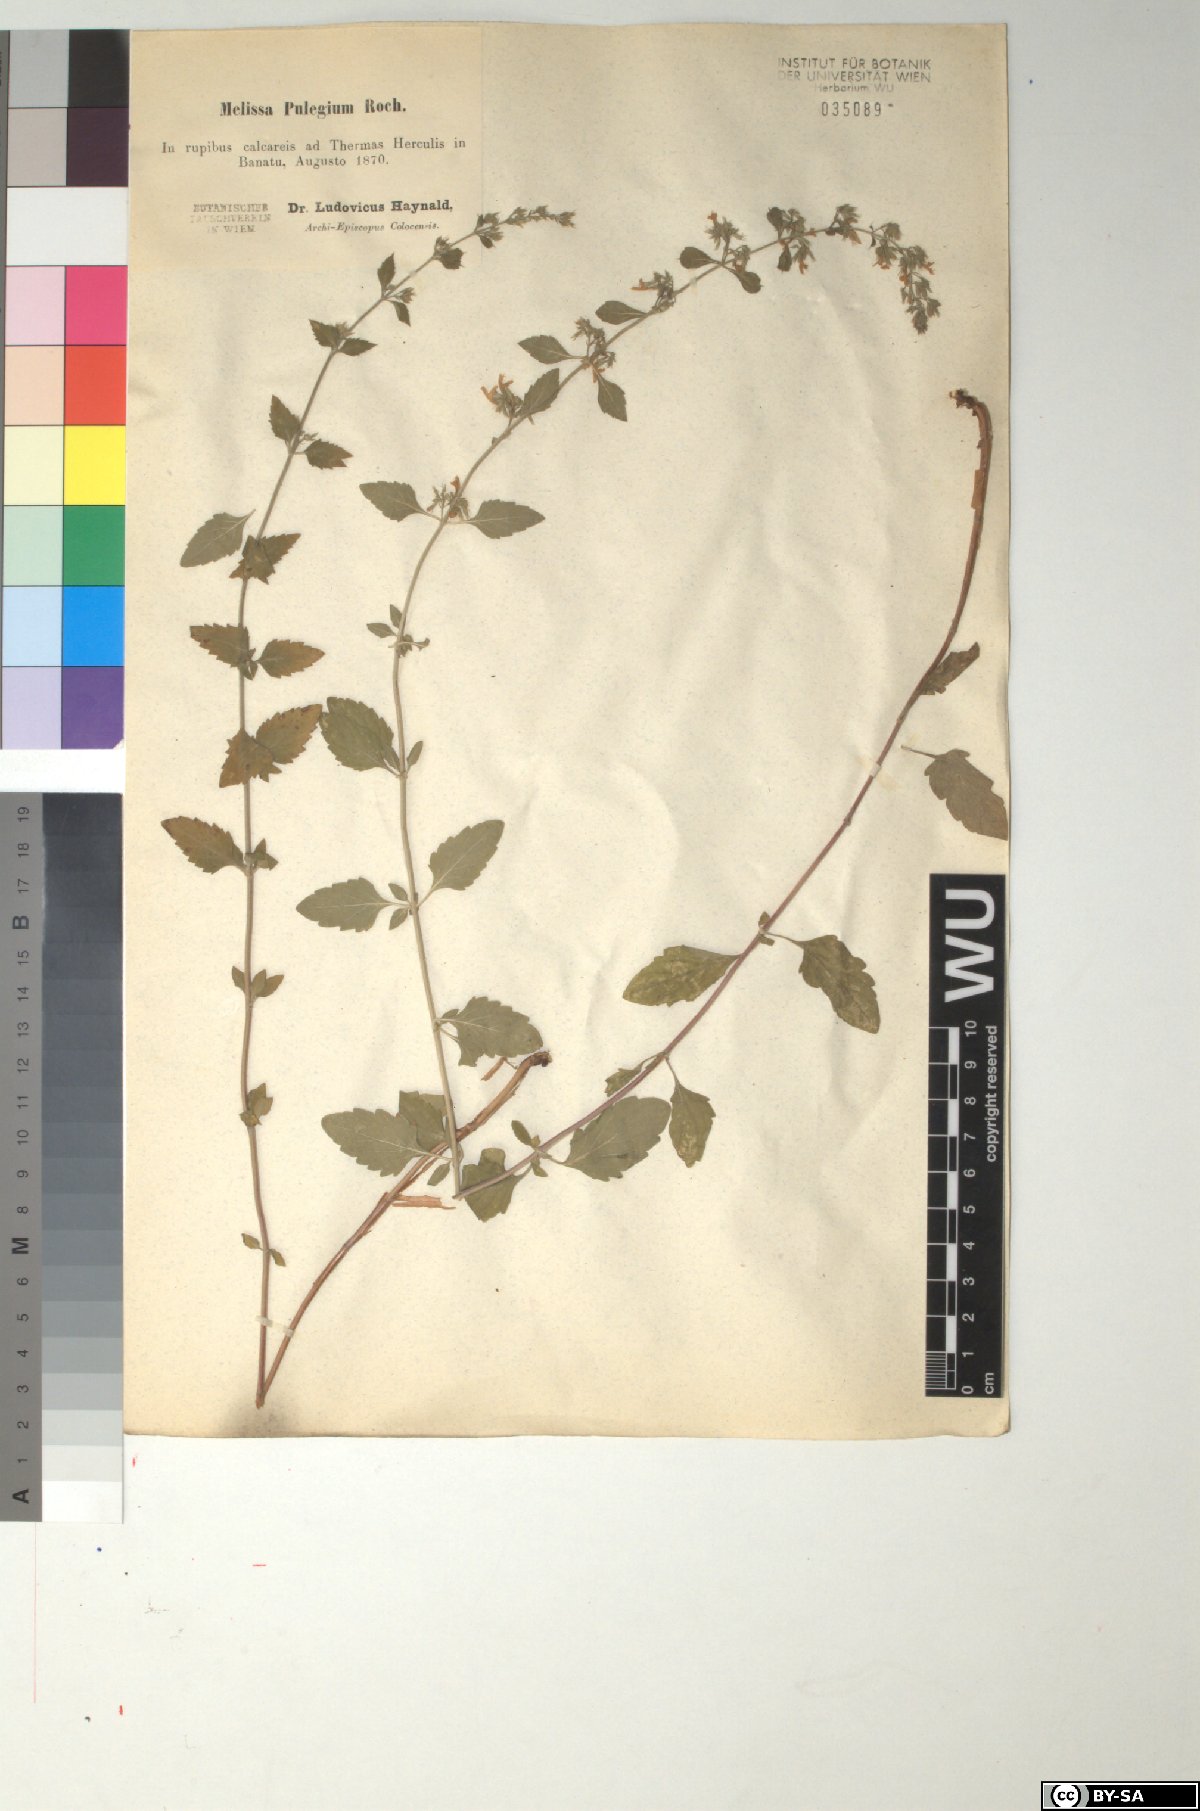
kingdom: Plantae
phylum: Tracheophyta
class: Magnoliopsida
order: Lamiales
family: Lamiaceae
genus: Clinopodium
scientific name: Clinopodium pulegium
